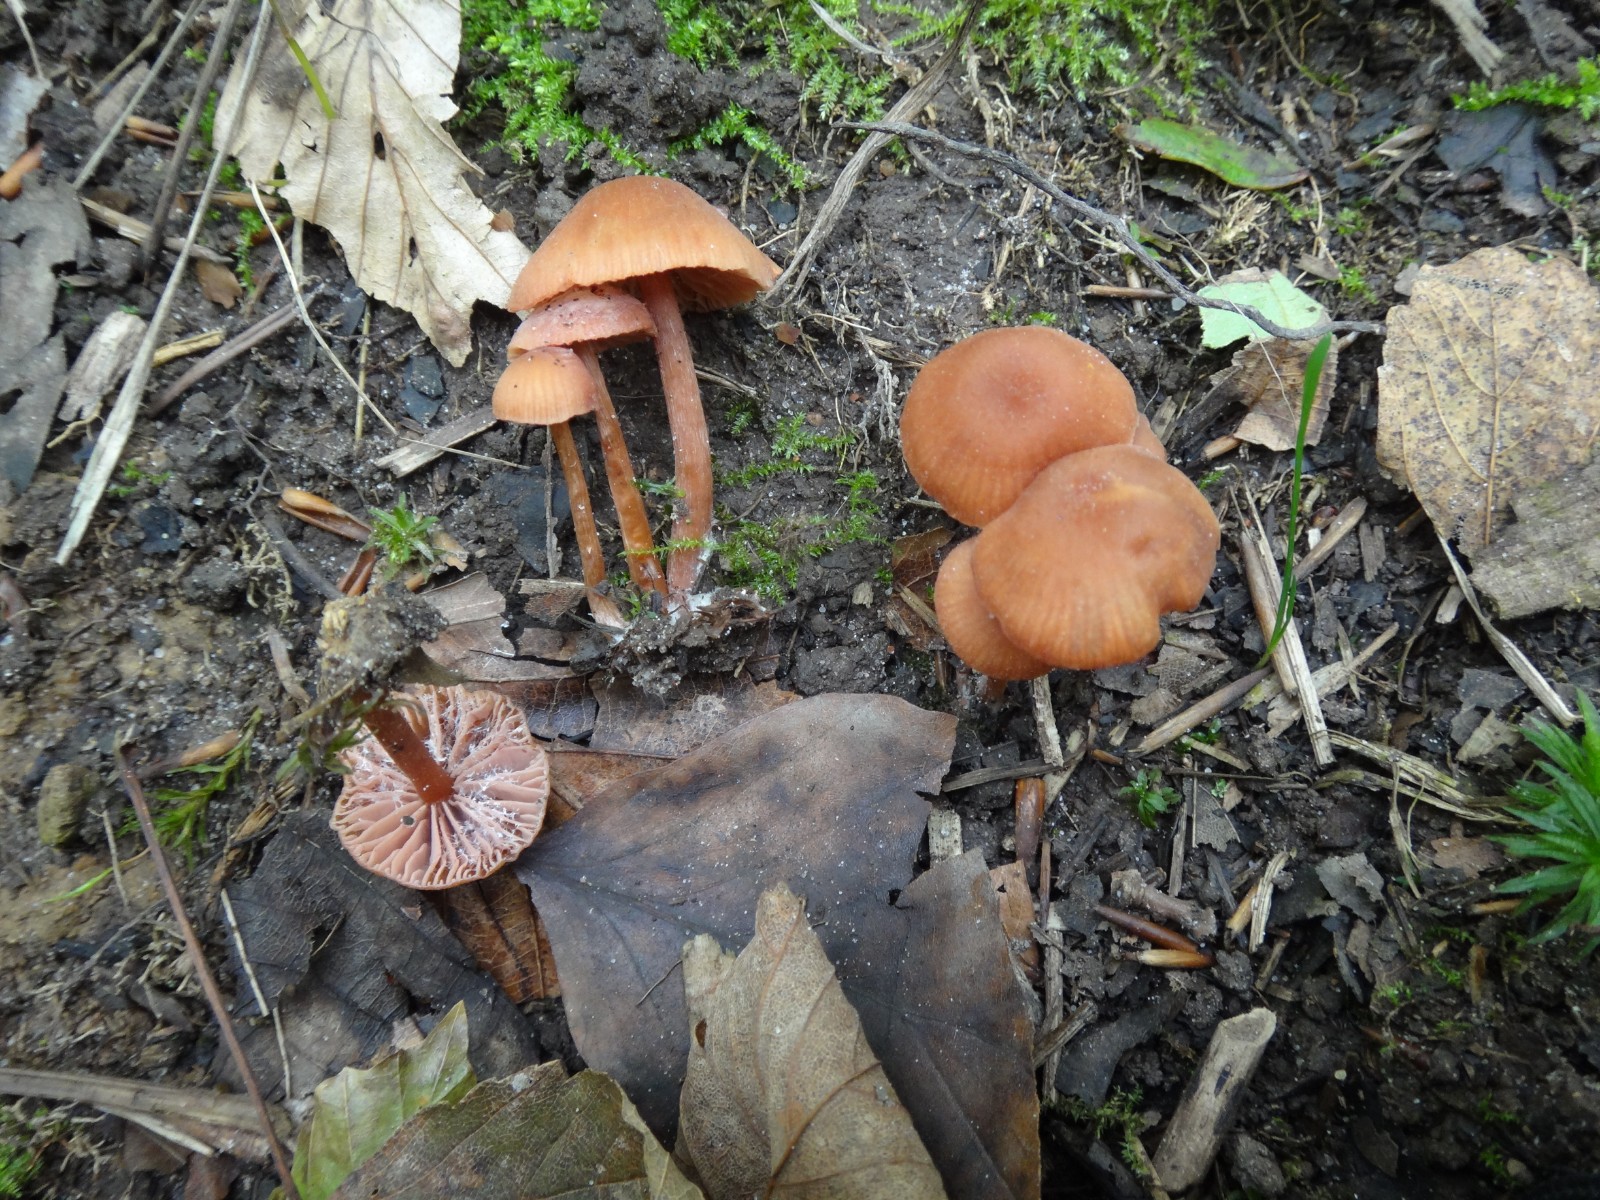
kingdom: Fungi
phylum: Basidiomycota
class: Agaricomycetes
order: Agaricales
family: Hydnangiaceae
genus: Laccaria
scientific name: Laccaria laccata
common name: rød ametysthat
